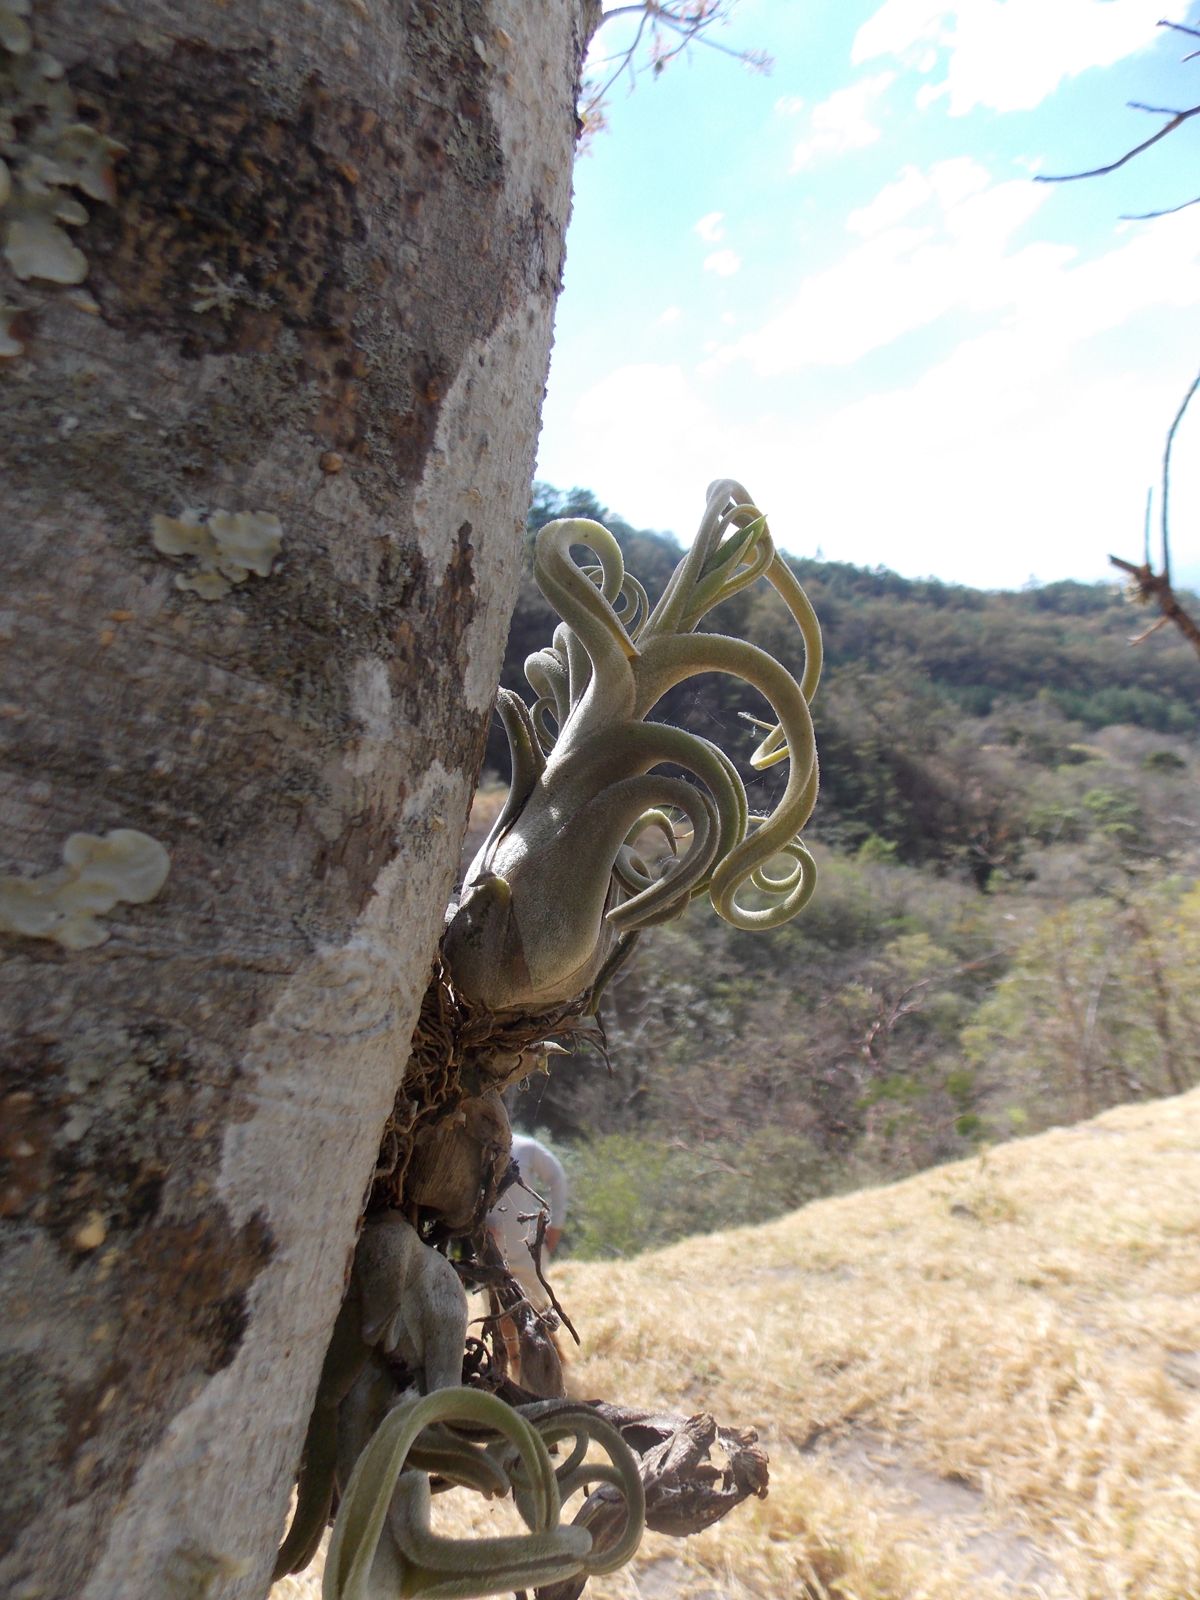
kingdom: Plantae
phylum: Tracheophyta
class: Liliopsida
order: Poales
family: Bromeliaceae
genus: Tillandsia
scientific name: Tillandsia caput-medusae
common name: Octopus plant
